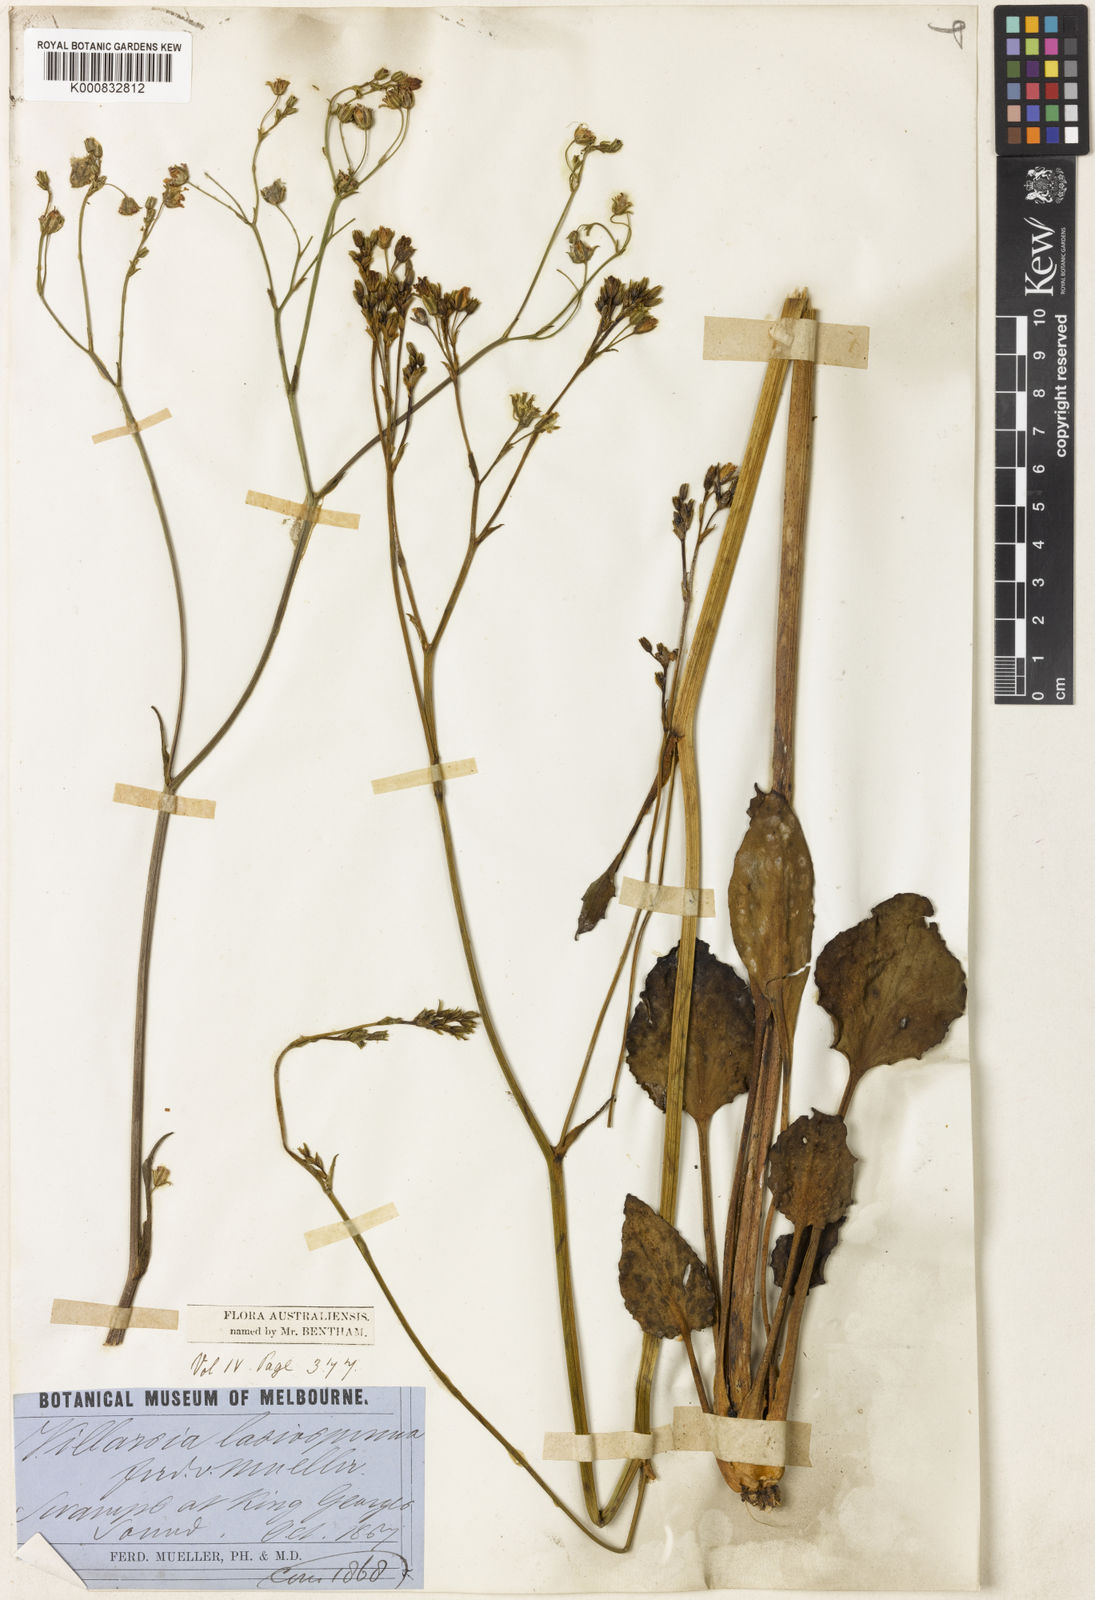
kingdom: Plantae
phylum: Tracheophyta
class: Magnoliopsida
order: Asterales
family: Menyanthaceae
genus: Liparophyllum
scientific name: Liparophyllum lasiospermum
